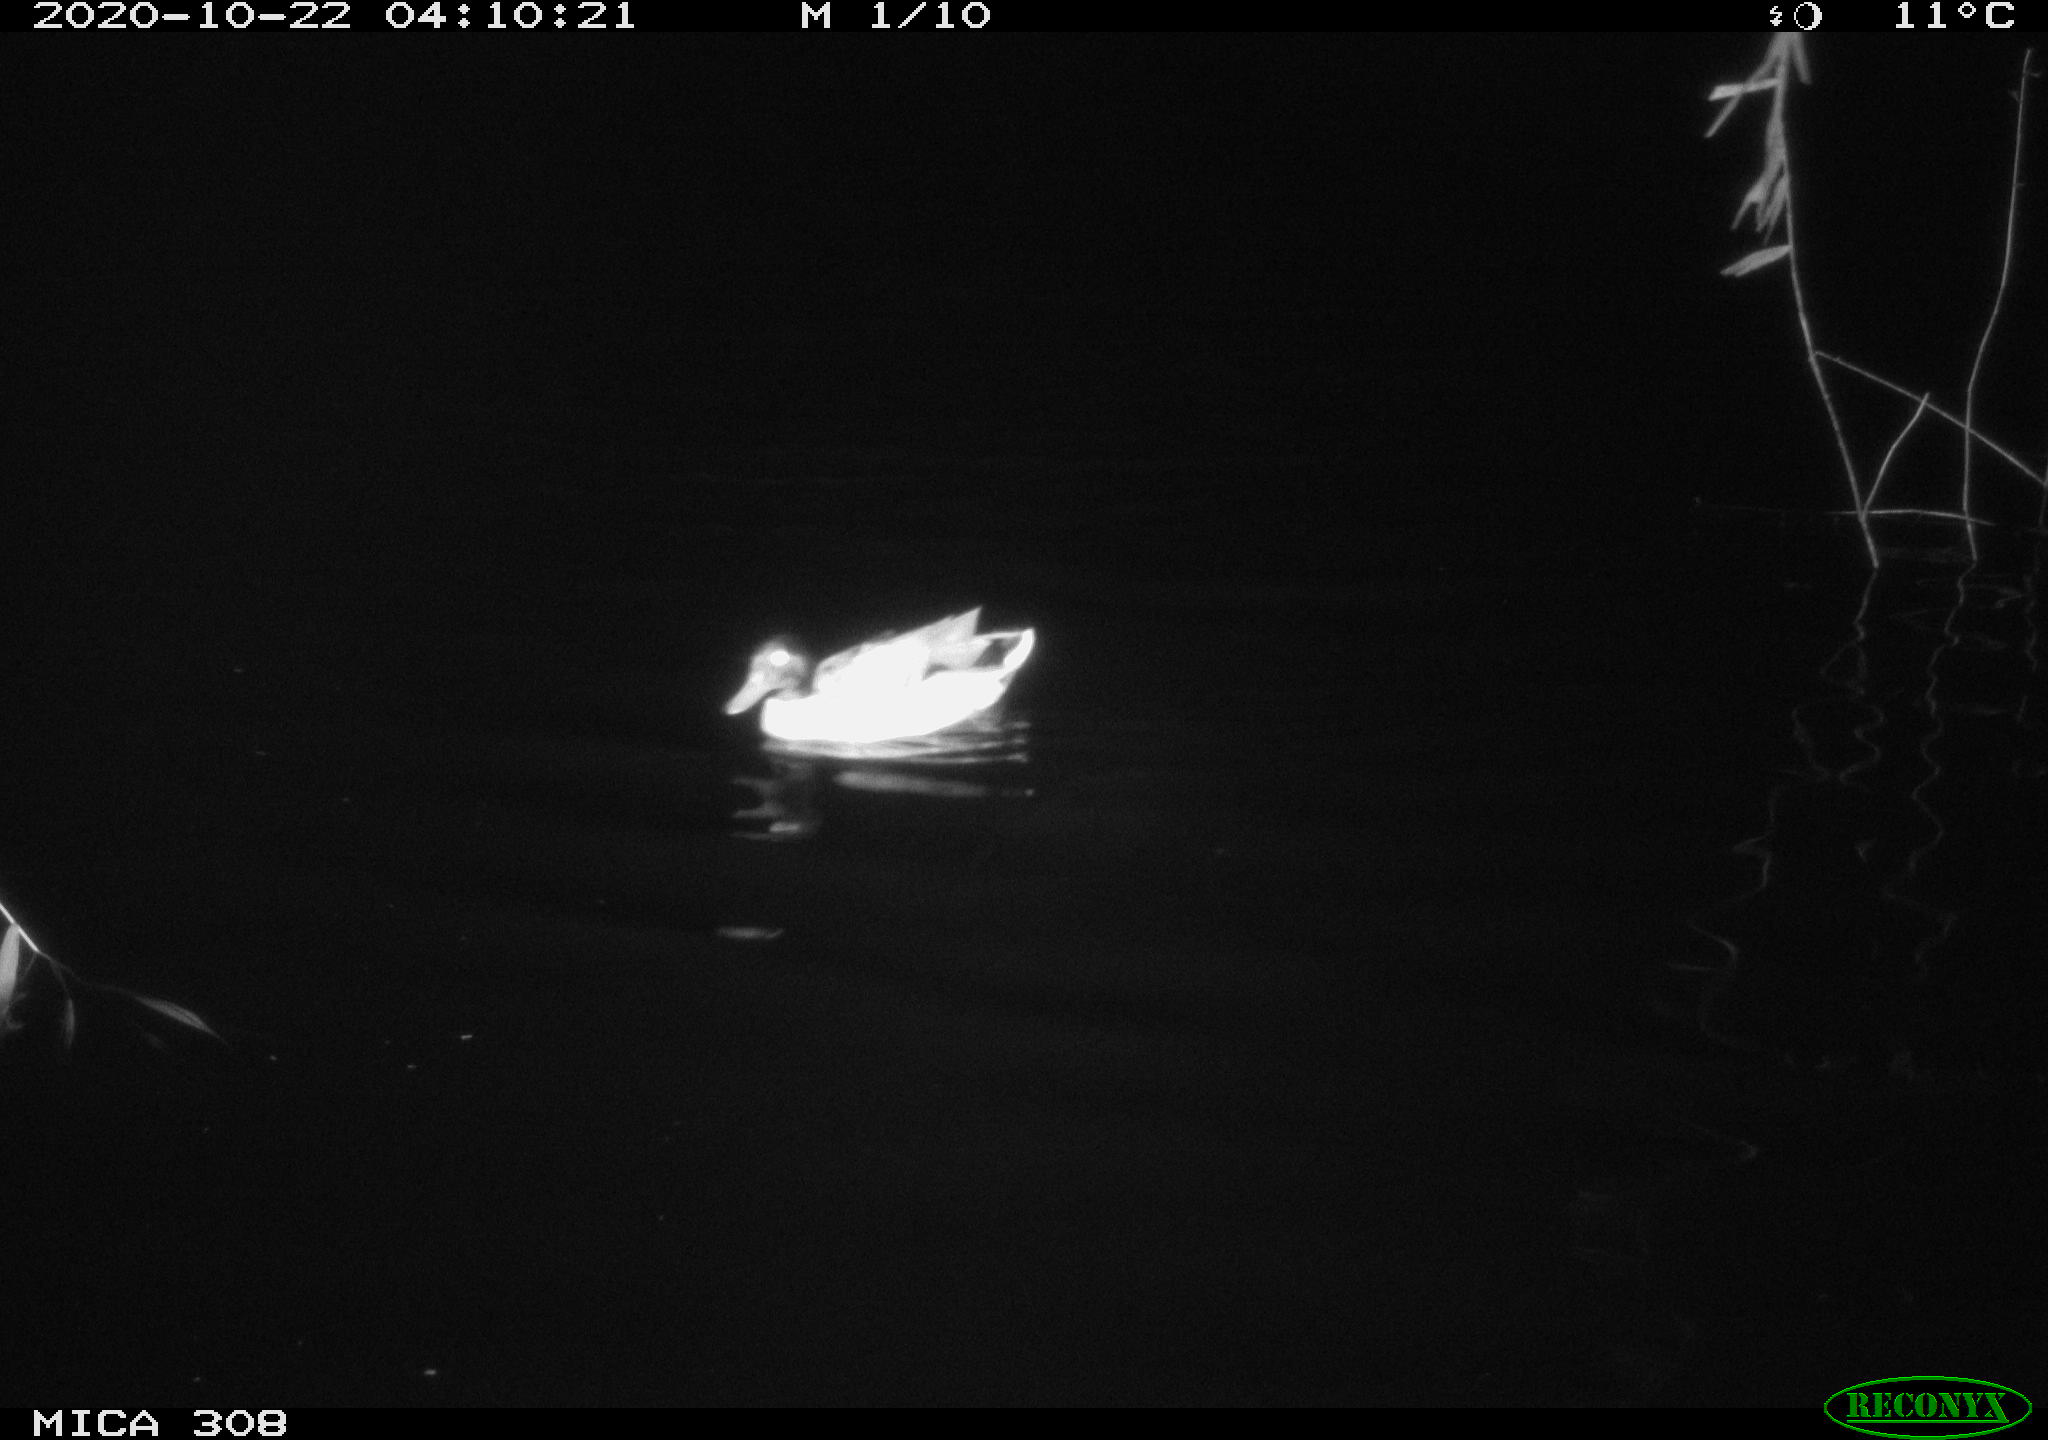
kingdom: Animalia
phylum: Chordata
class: Aves
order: Anseriformes
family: Anatidae
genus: Anas
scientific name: Anas platyrhynchos
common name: Mallard
